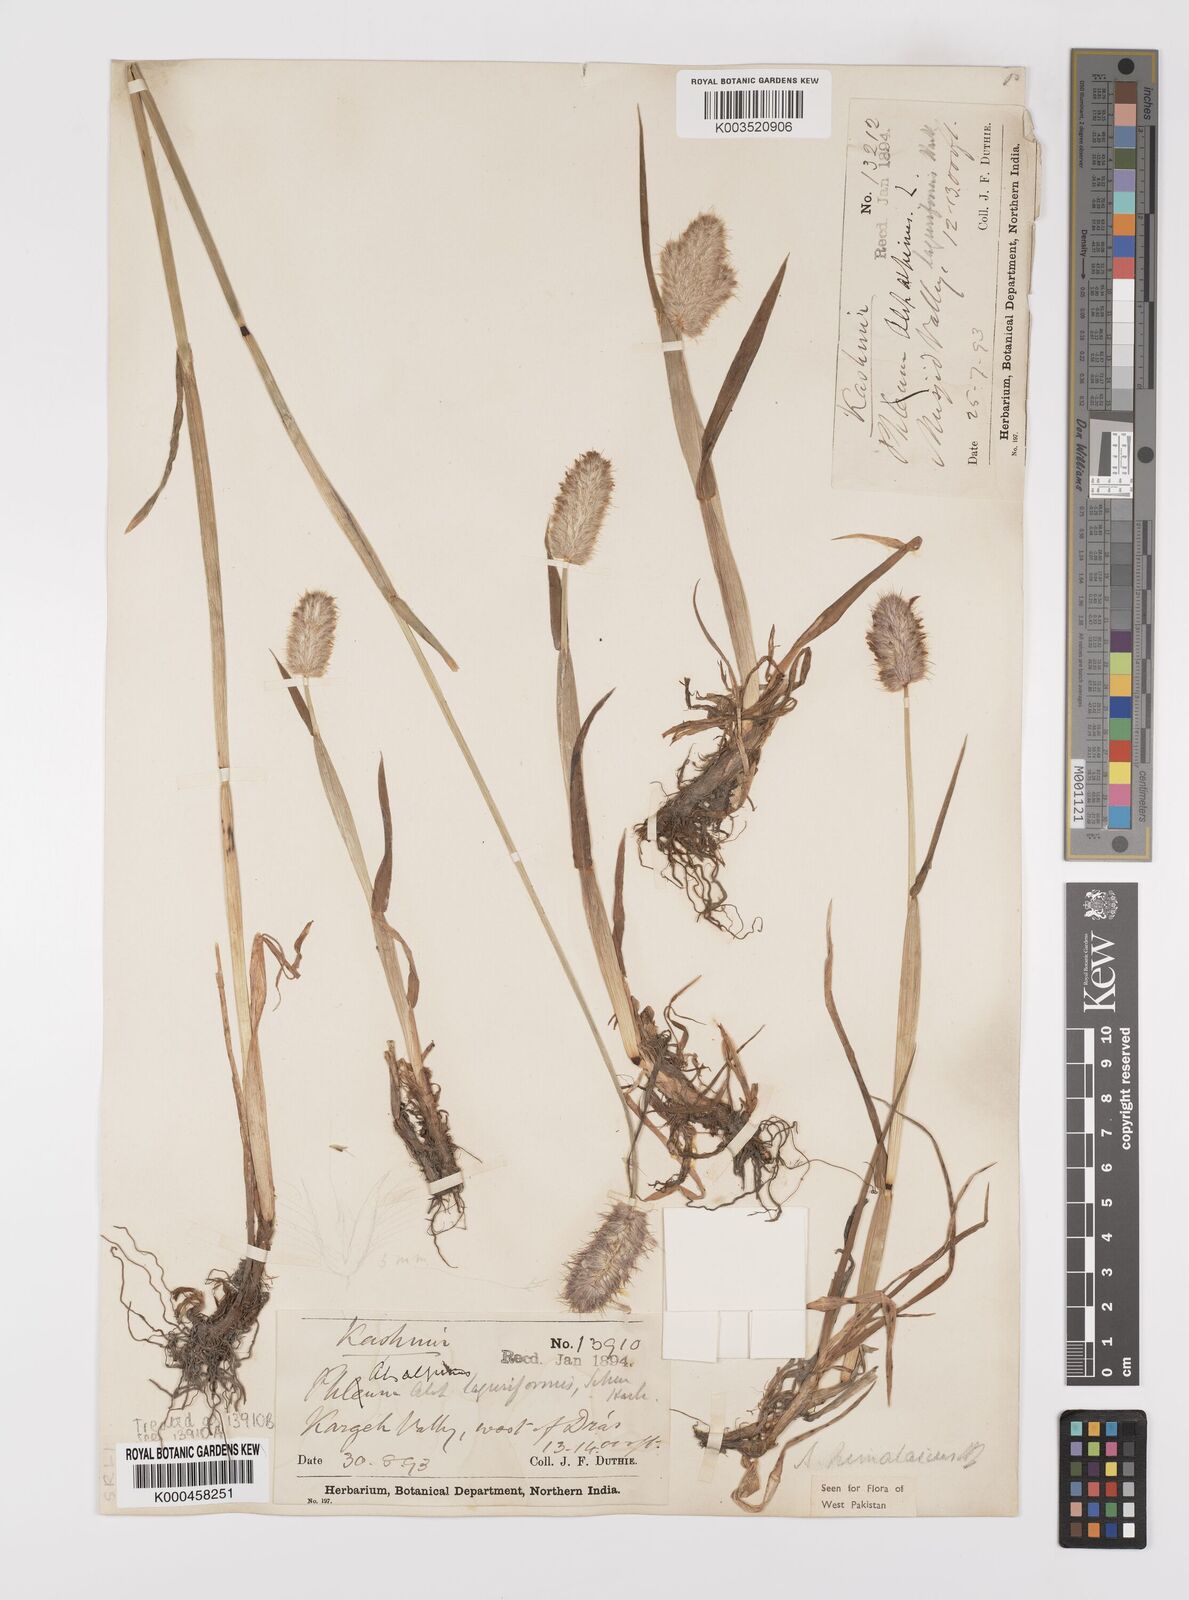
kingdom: Plantae
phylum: Tracheophyta
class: Liliopsida
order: Poales
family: Poaceae
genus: Alopecurus
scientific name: Alopecurus himalaicus
